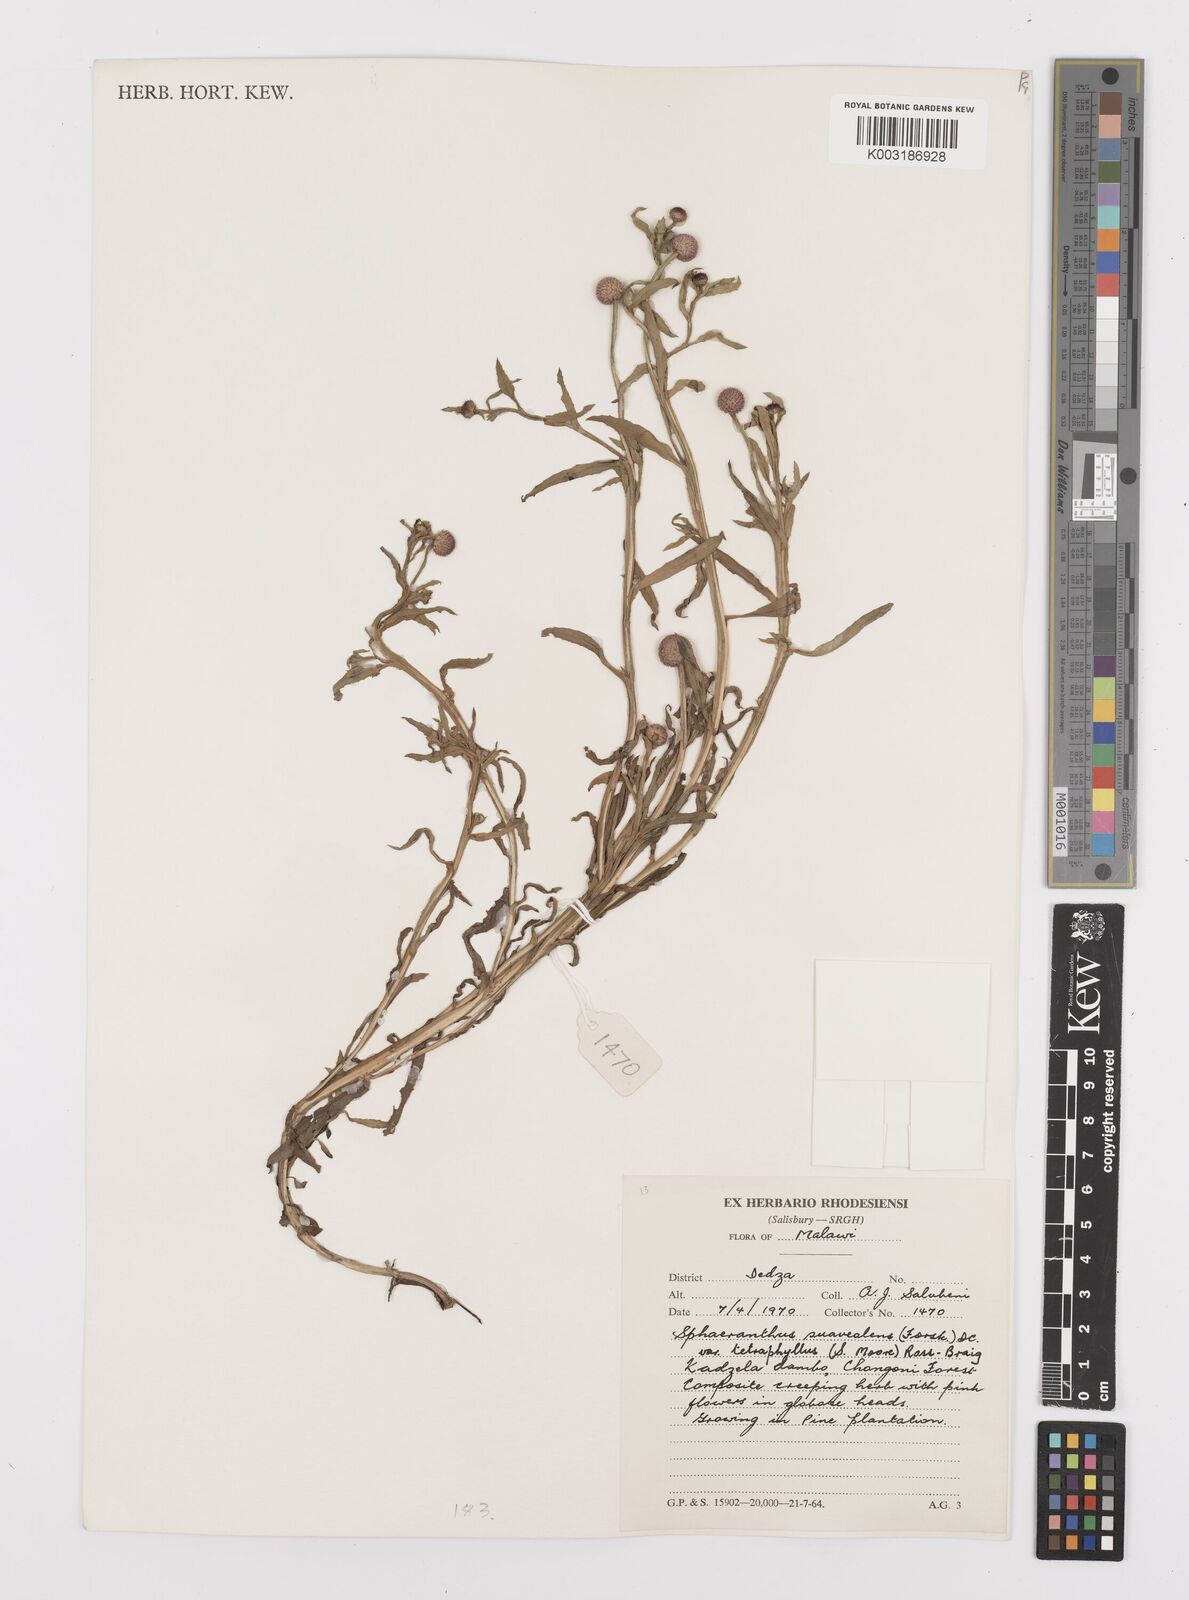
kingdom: Plantae
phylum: Tracheophyta
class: Magnoliopsida
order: Asterales
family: Asteraceae
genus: Sphaeranthus
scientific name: Sphaeranthus suaveolens
